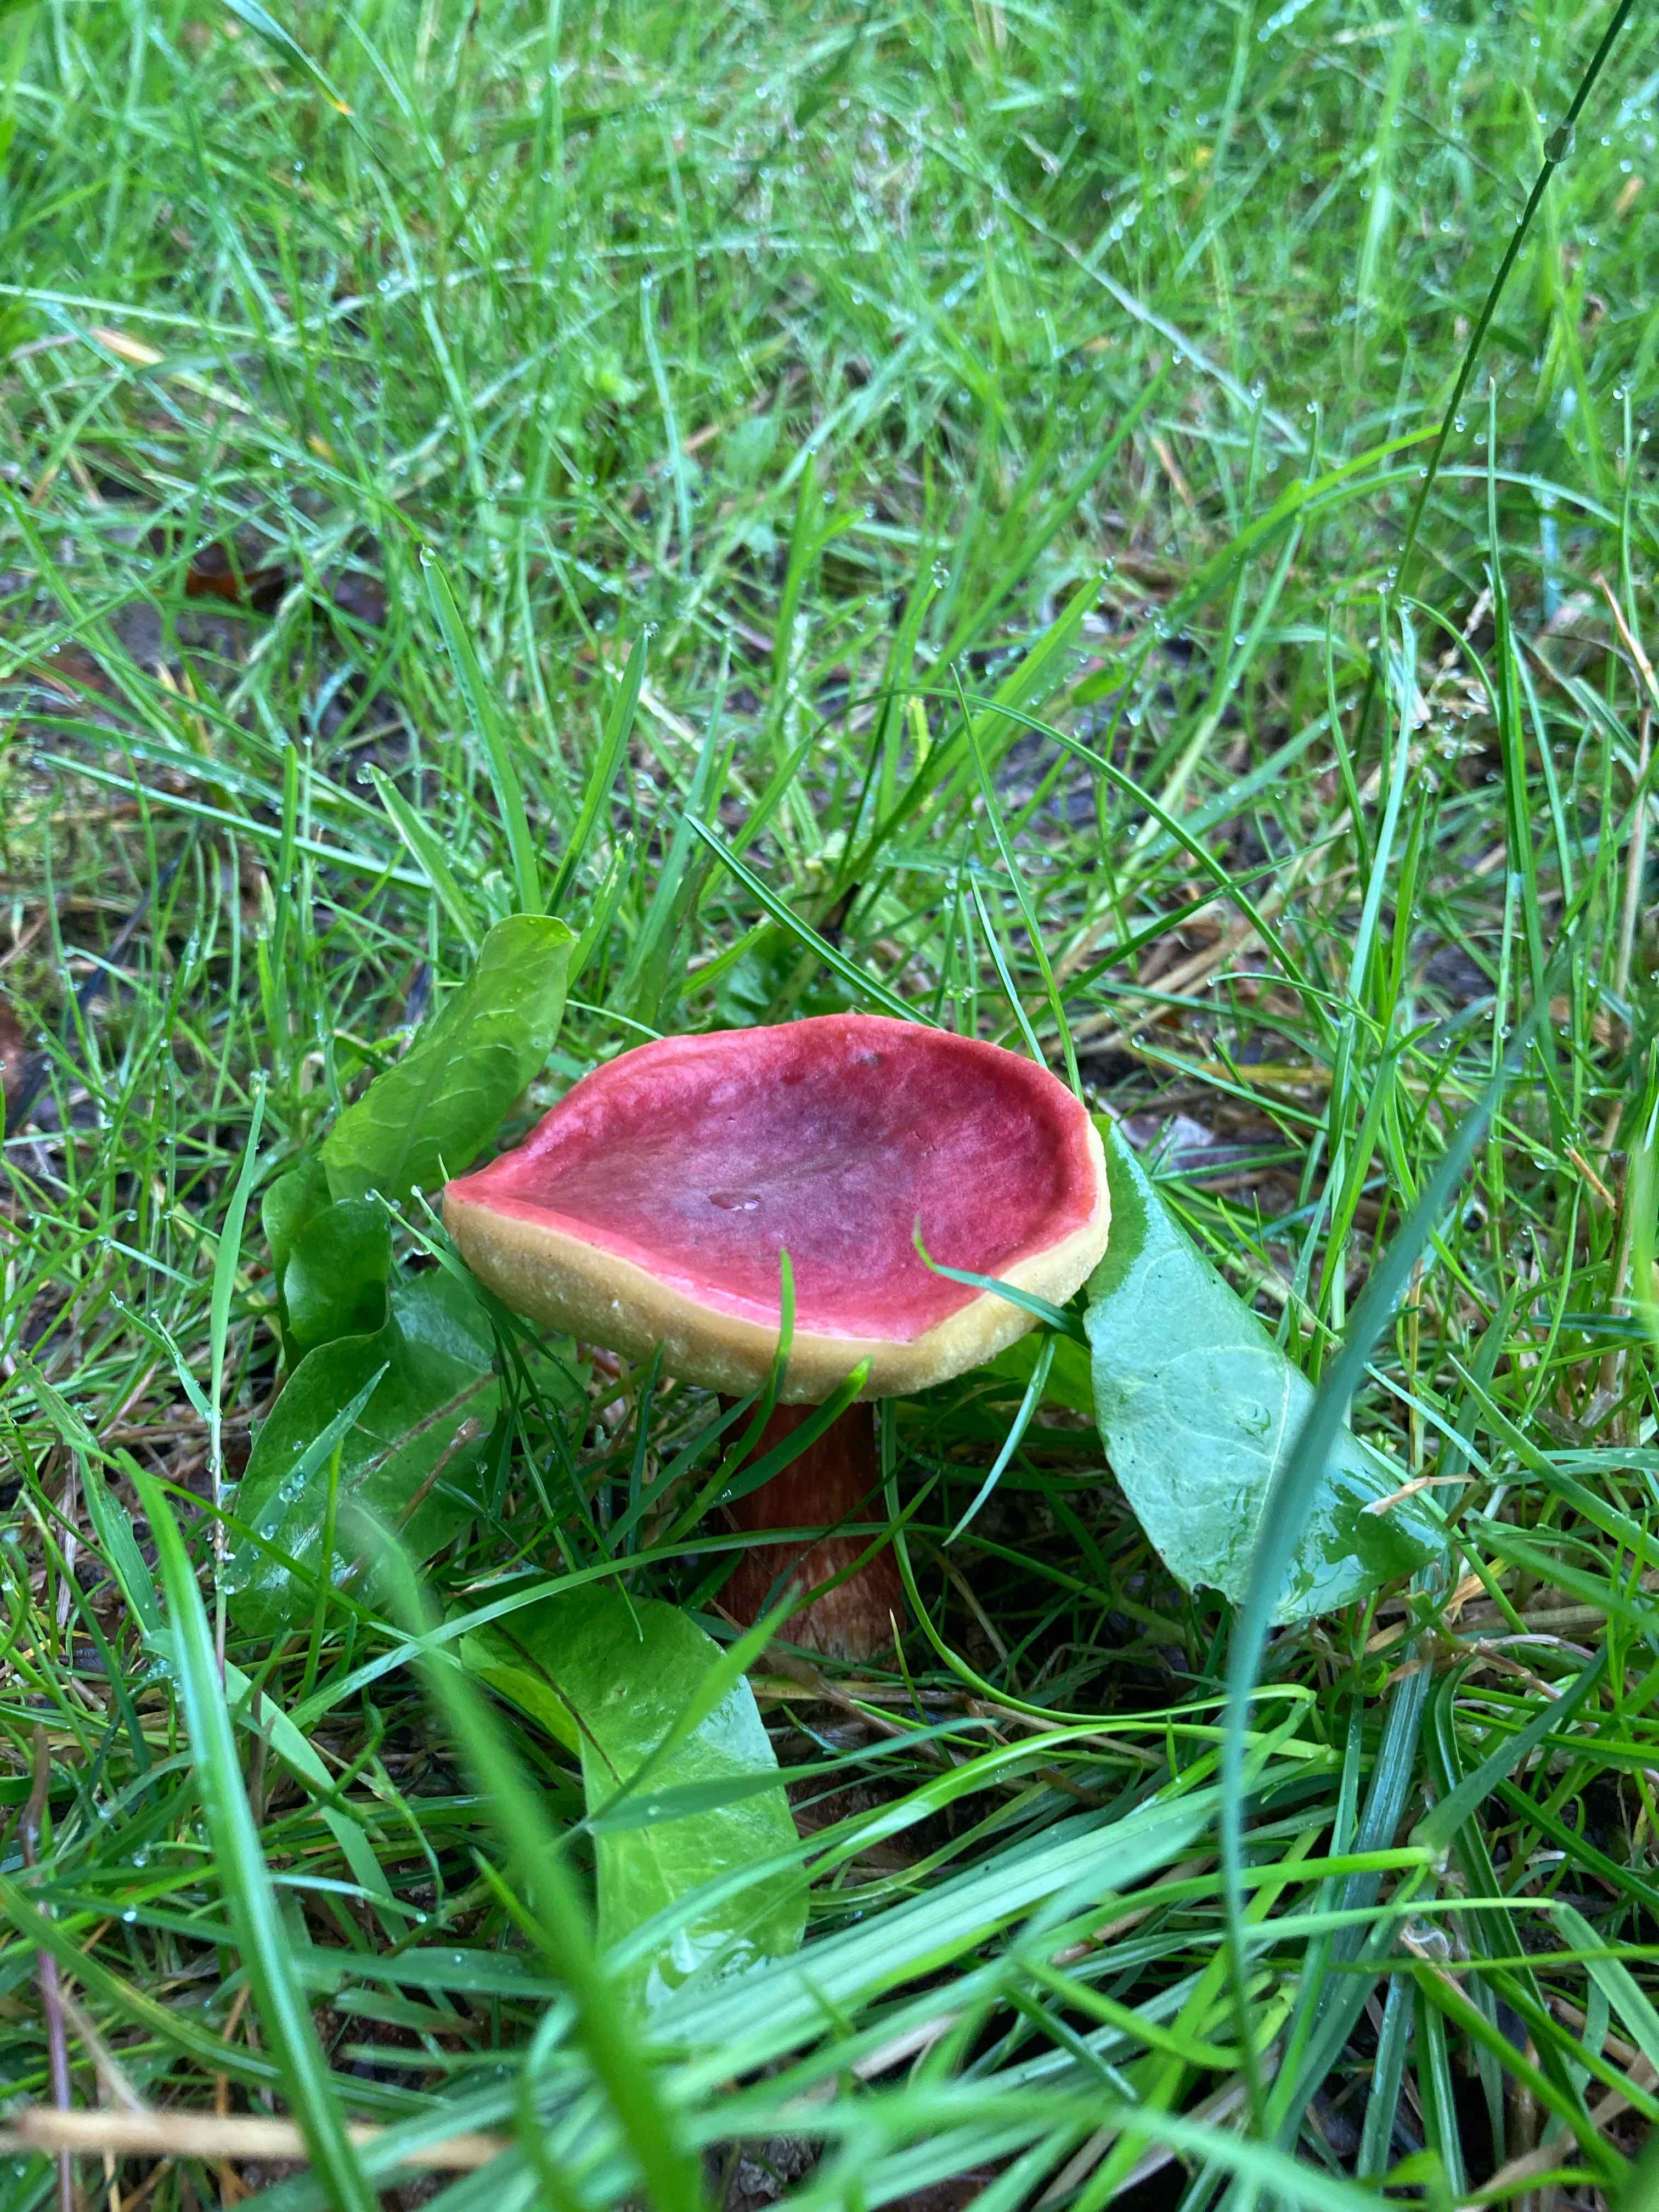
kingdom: Fungi
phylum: Basidiomycota
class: Agaricomycetes
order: Boletales
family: Boletaceae
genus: Hortiboletus
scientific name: Hortiboletus rubellus
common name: blodrød rørhat
